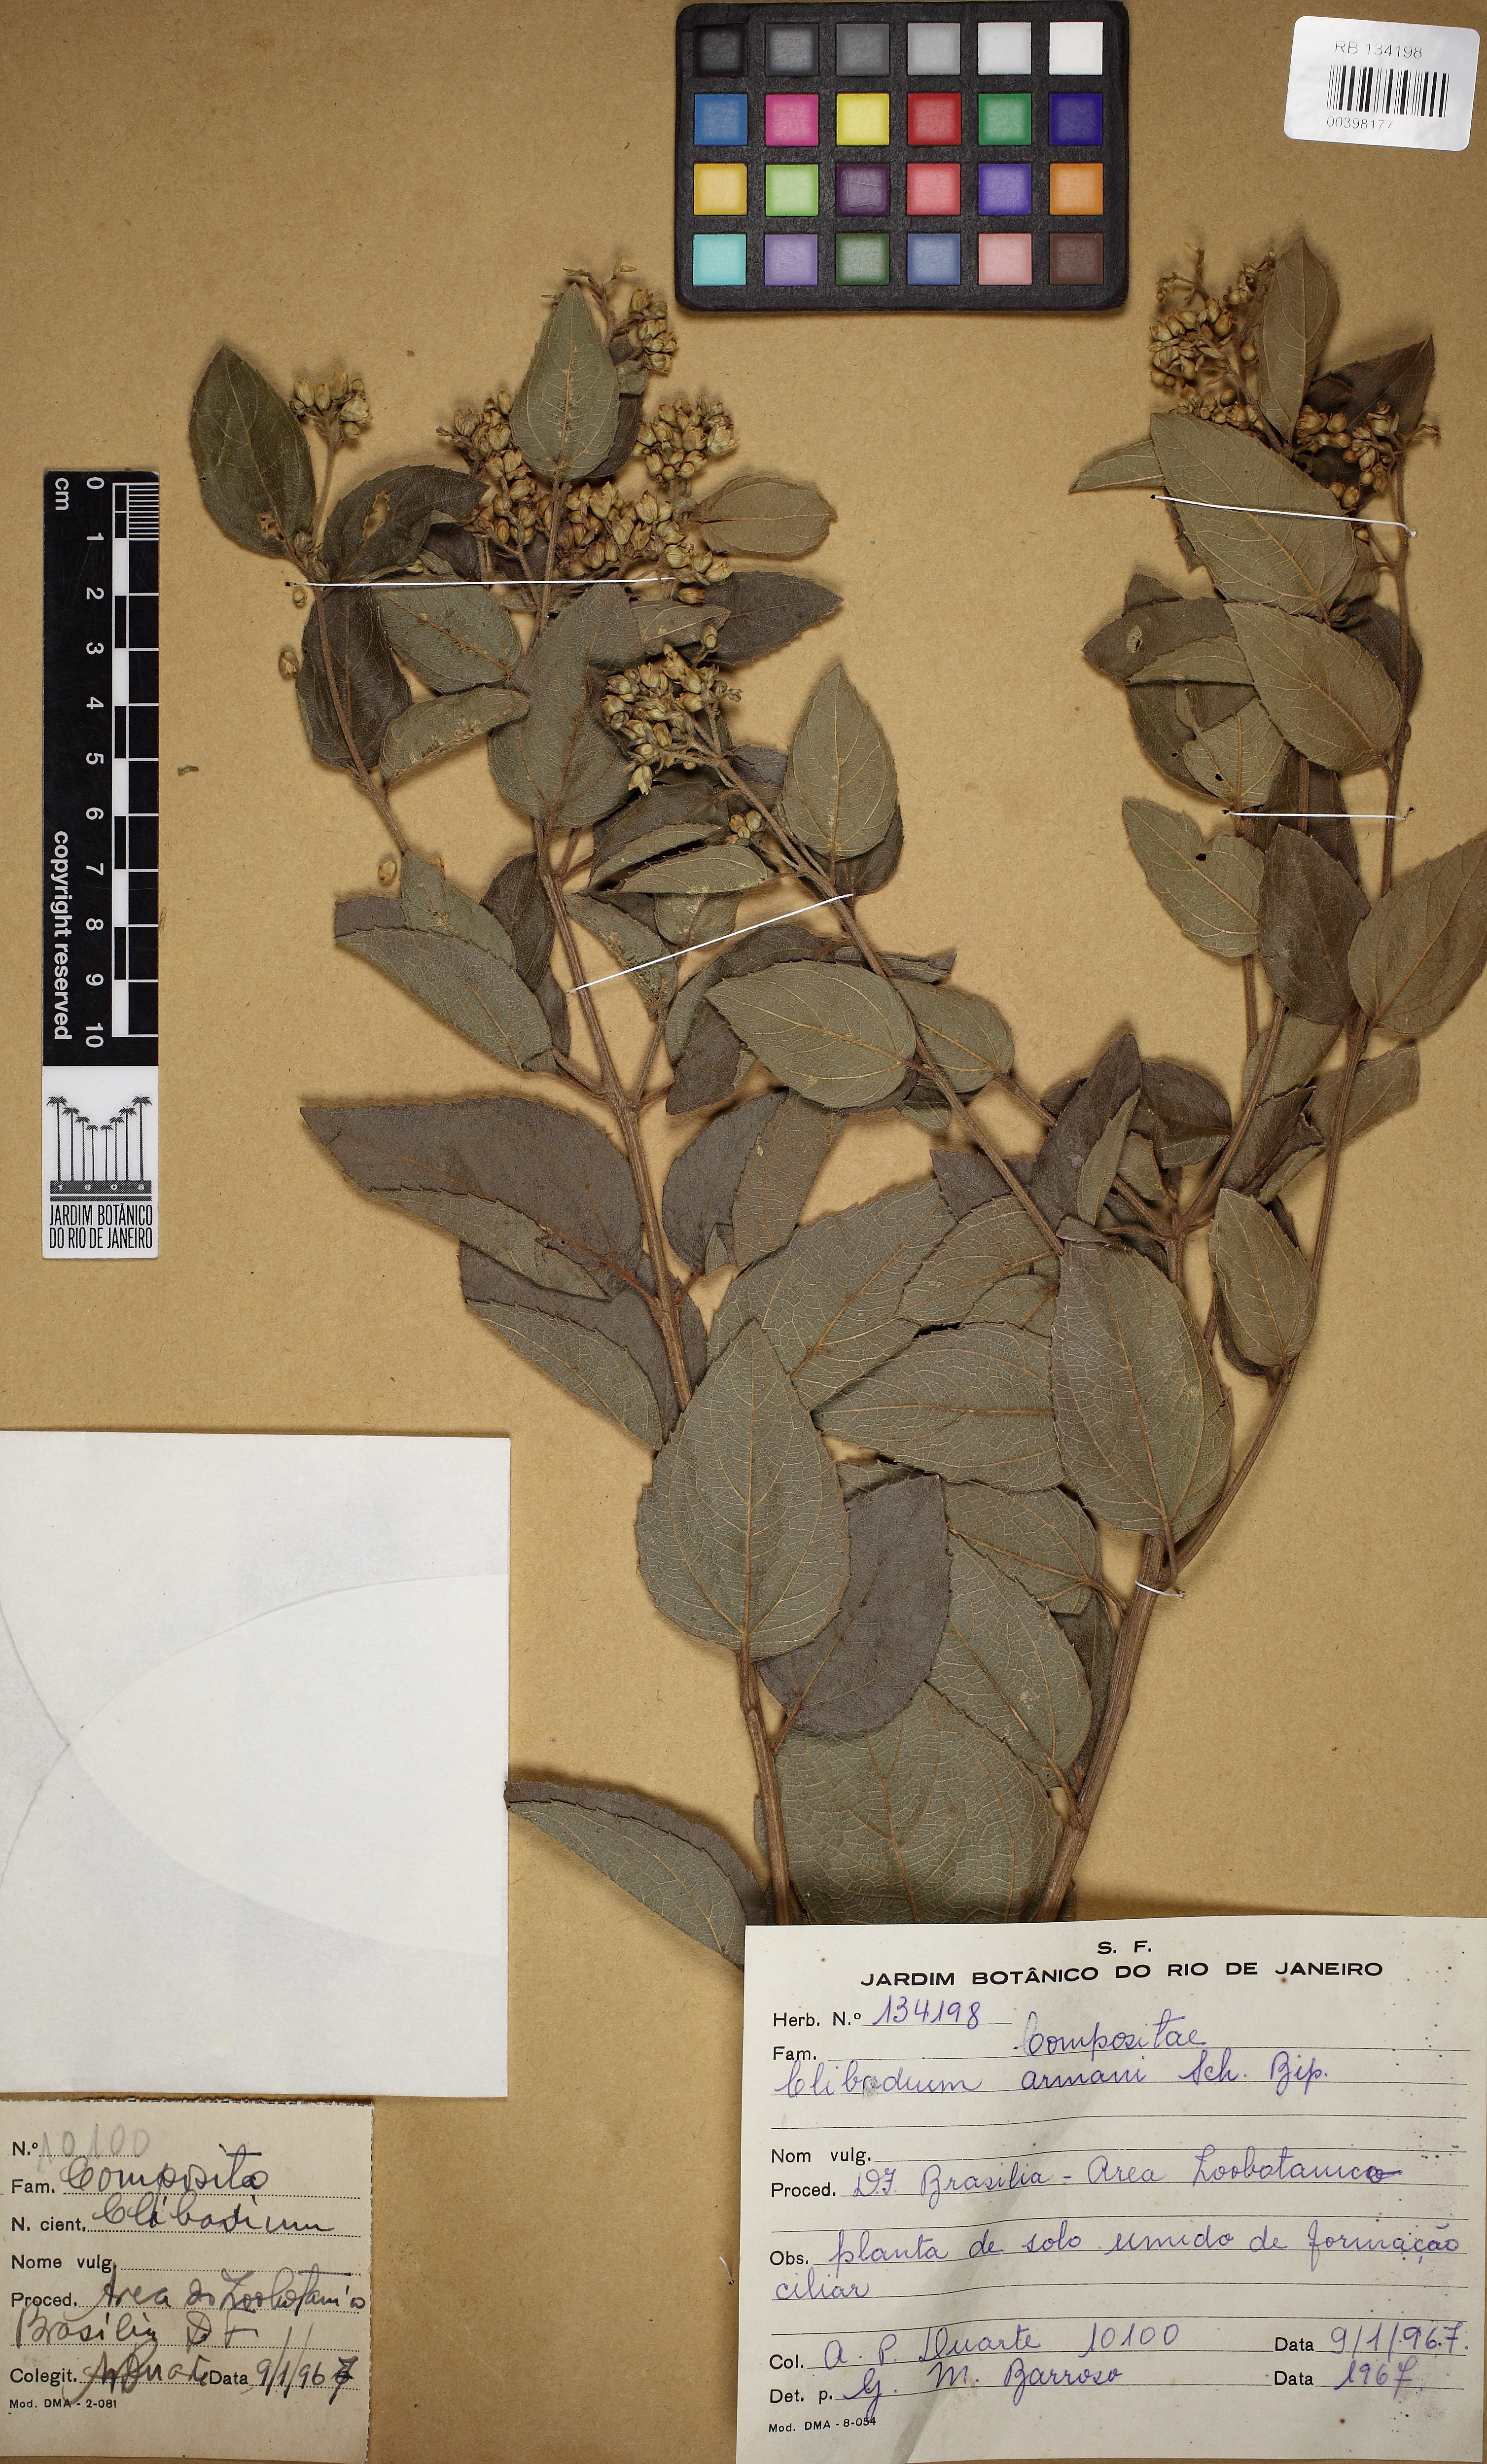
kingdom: Plantae
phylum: Tracheophyta
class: Magnoliopsida
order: Asterales
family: Asteraceae
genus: Clibadium
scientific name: Clibadium armanii
